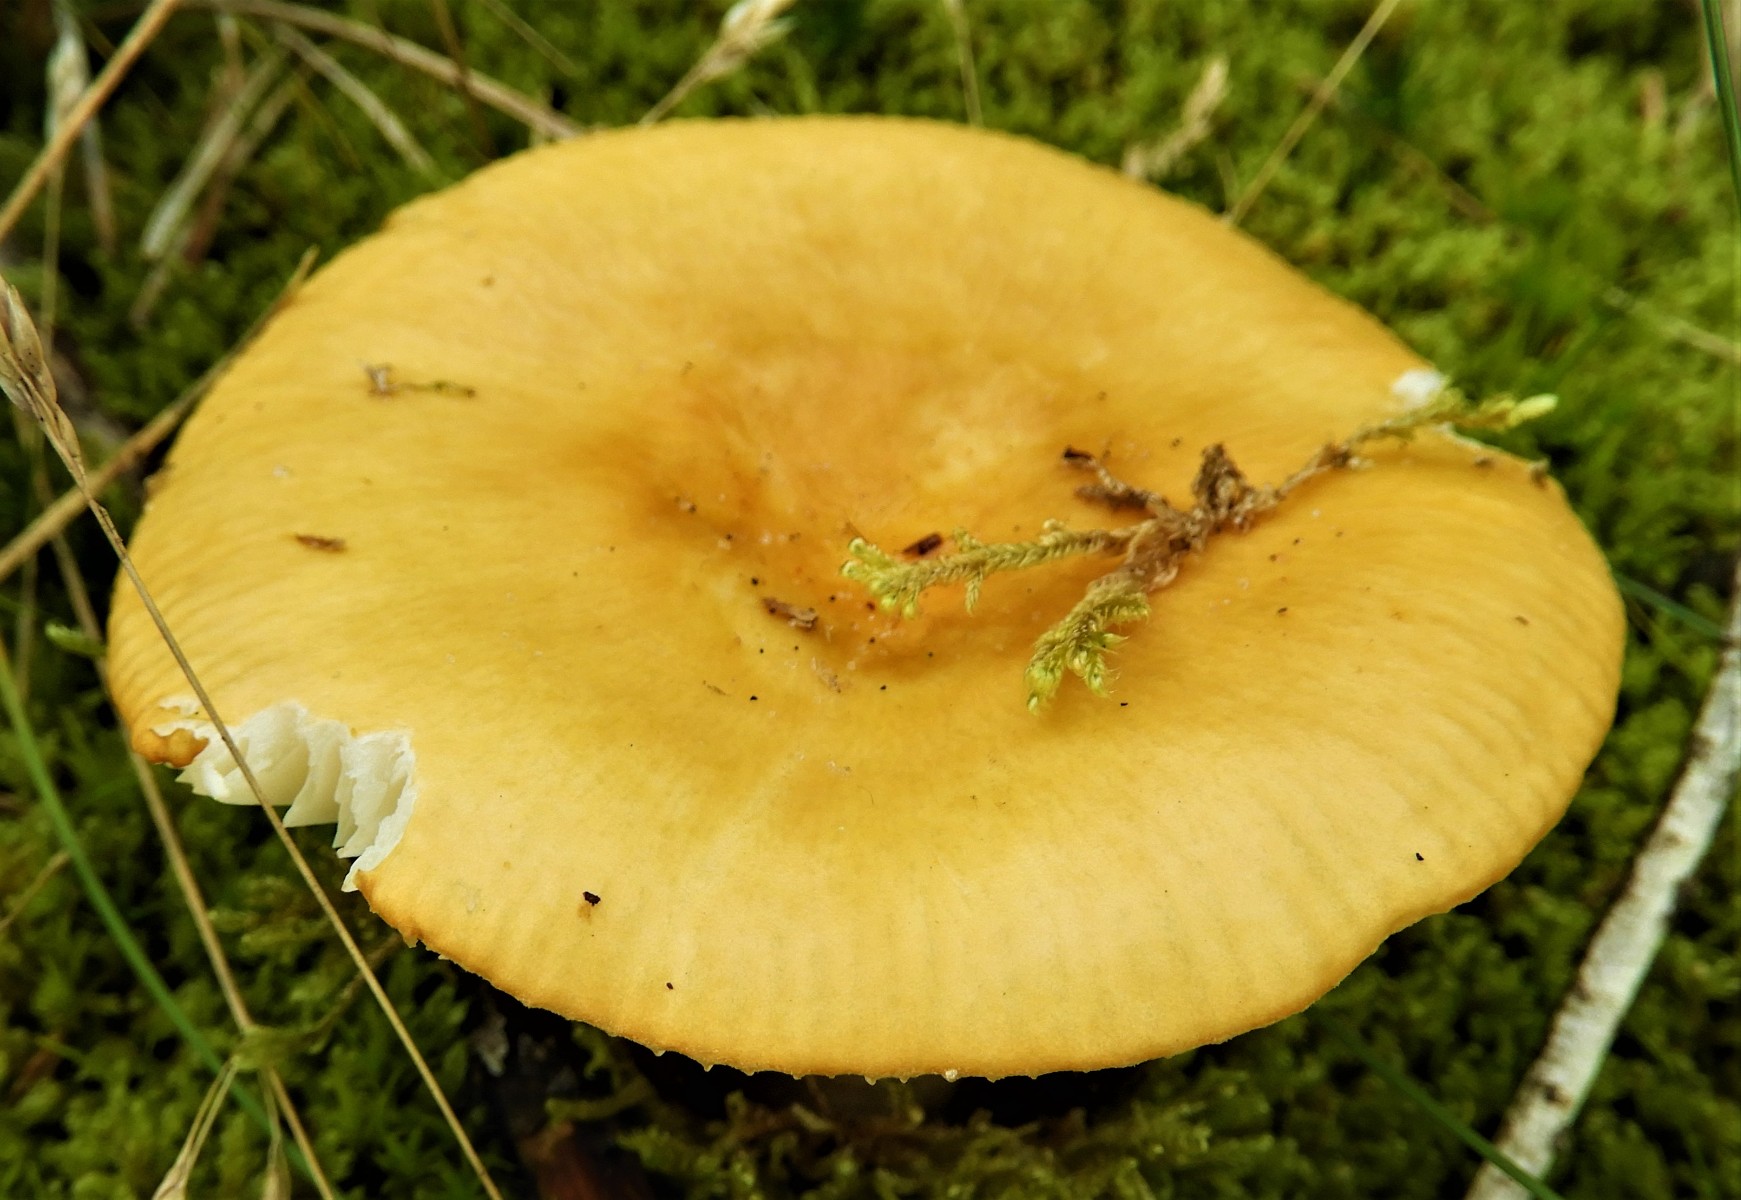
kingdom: Fungi
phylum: Basidiomycota
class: Agaricomycetes
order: Russulales
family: Russulaceae
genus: Russula
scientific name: Russula claroflava
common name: birke-skørhat
